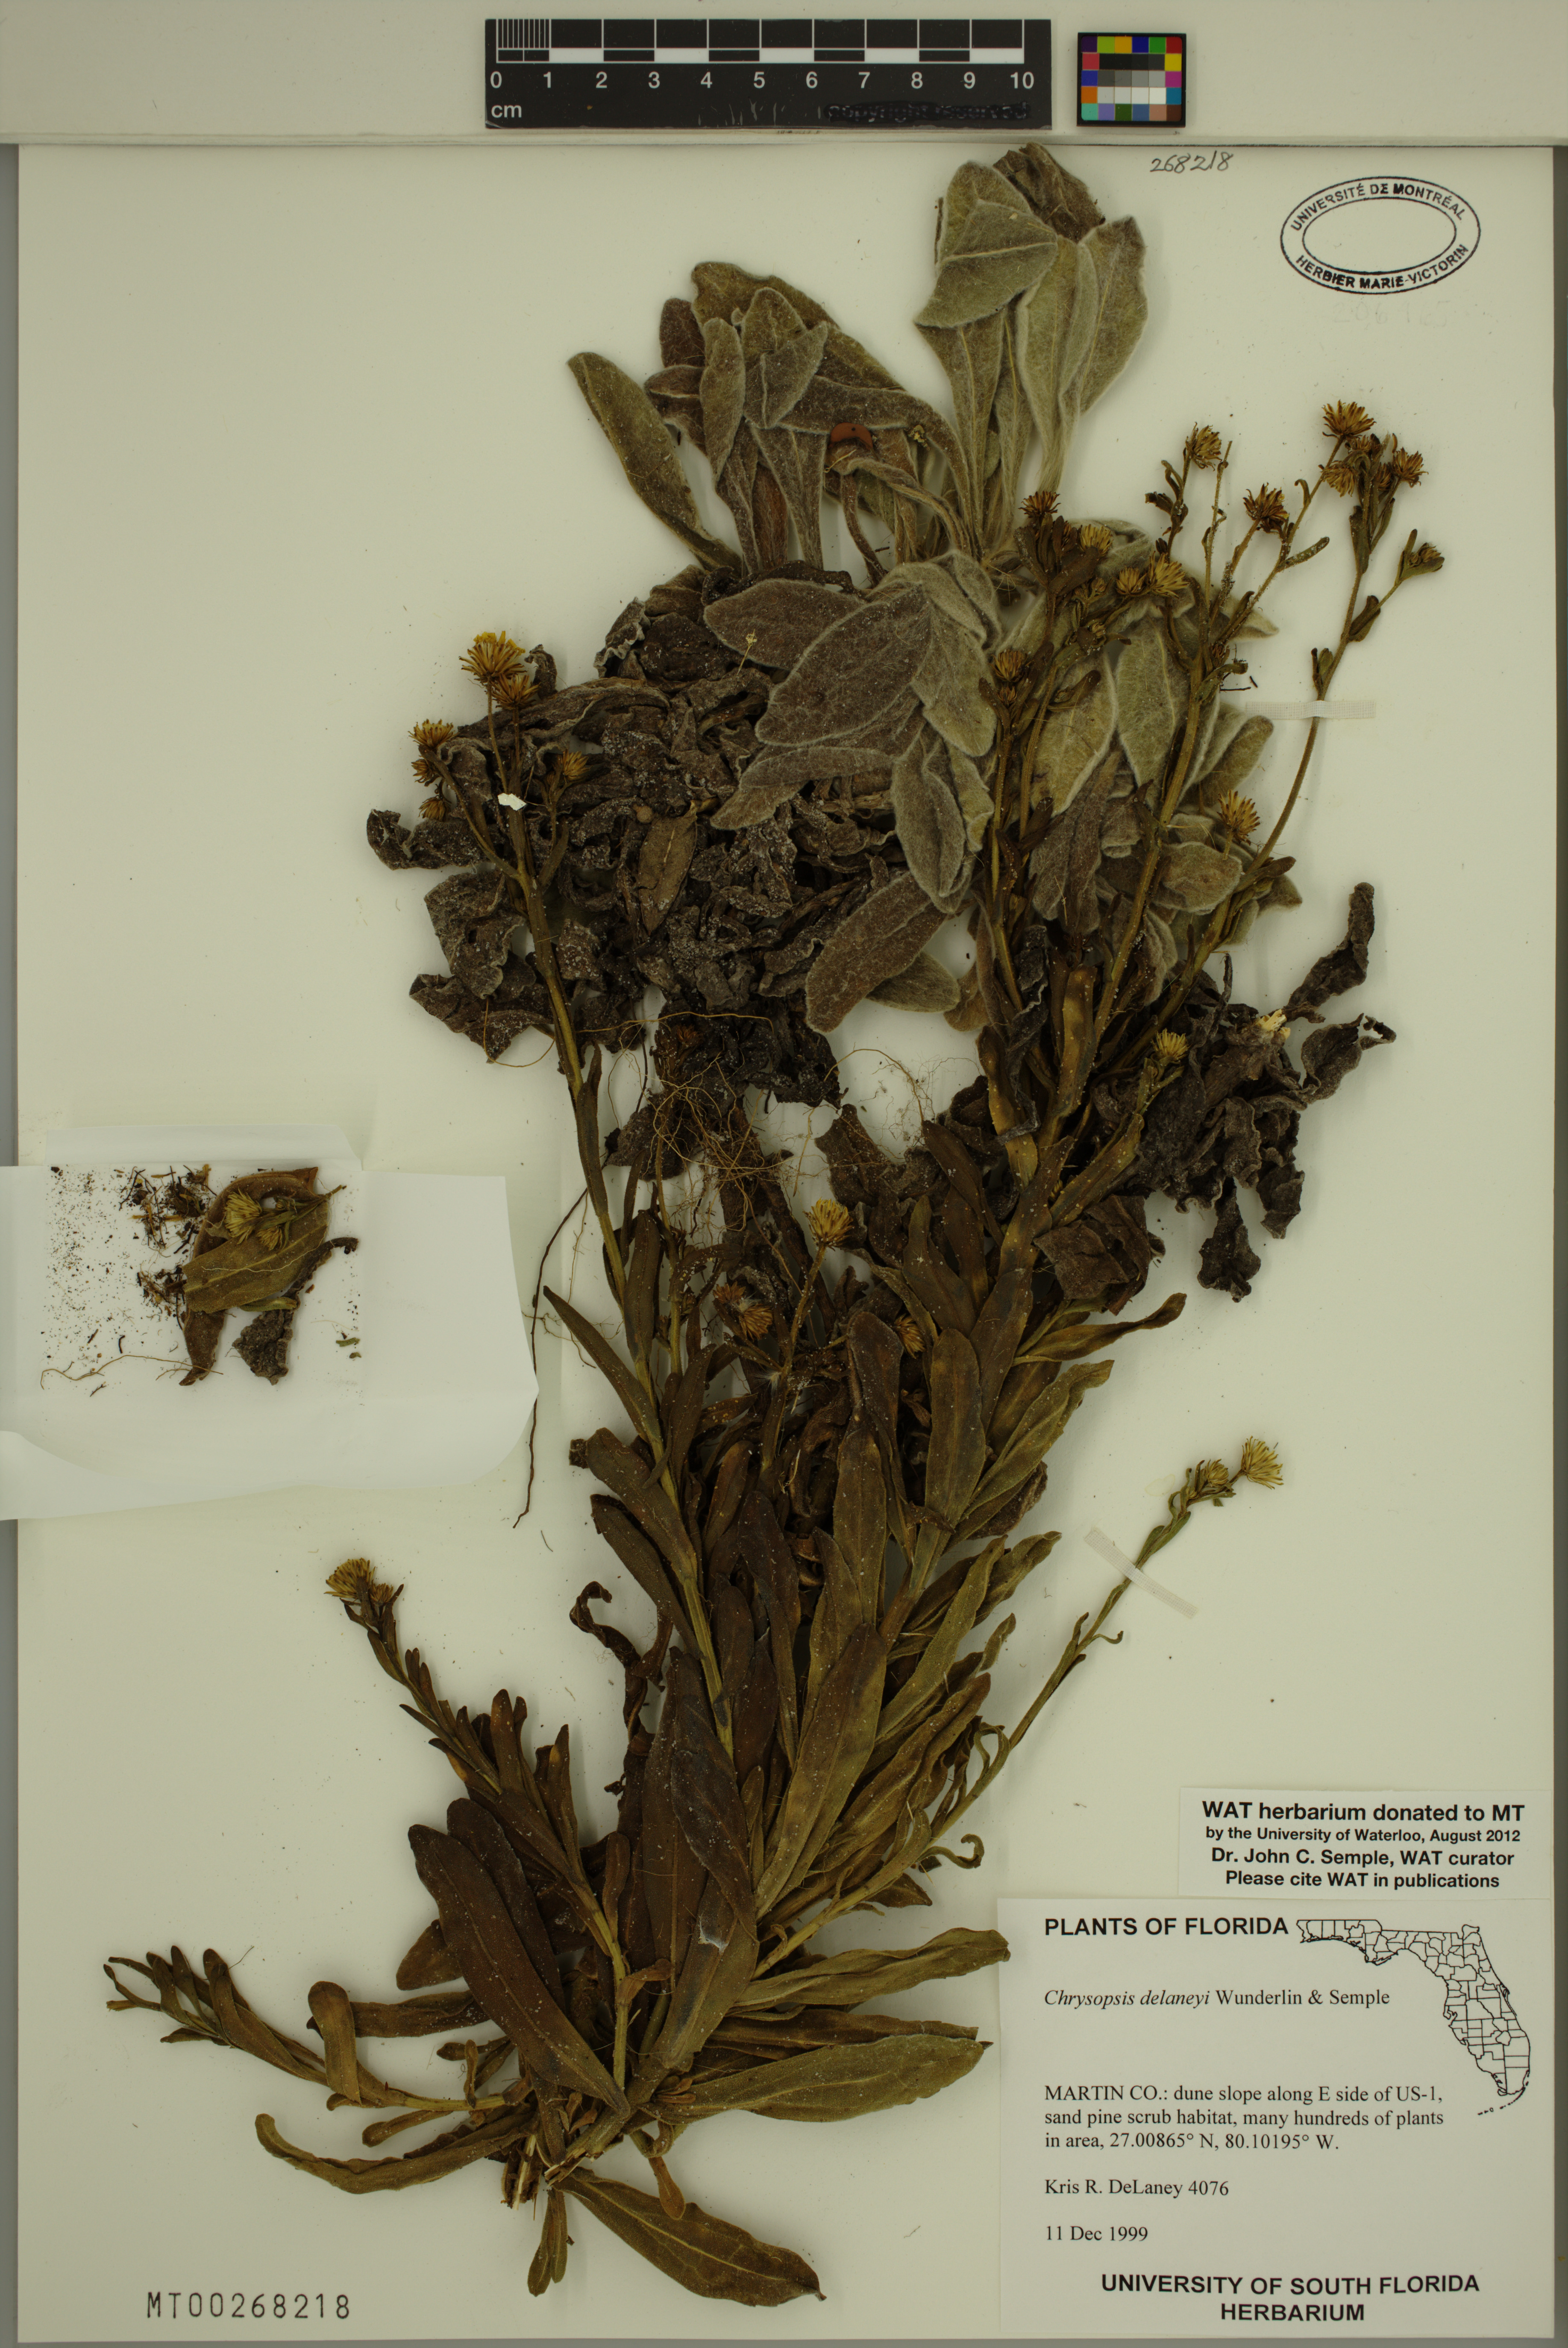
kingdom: Plantae
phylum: Tracheophyta
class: Magnoliopsida
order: Asterales
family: Asteraceae
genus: Chrysopsis
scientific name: Chrysopsis delaneyi
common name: Delaney's goldenaster
